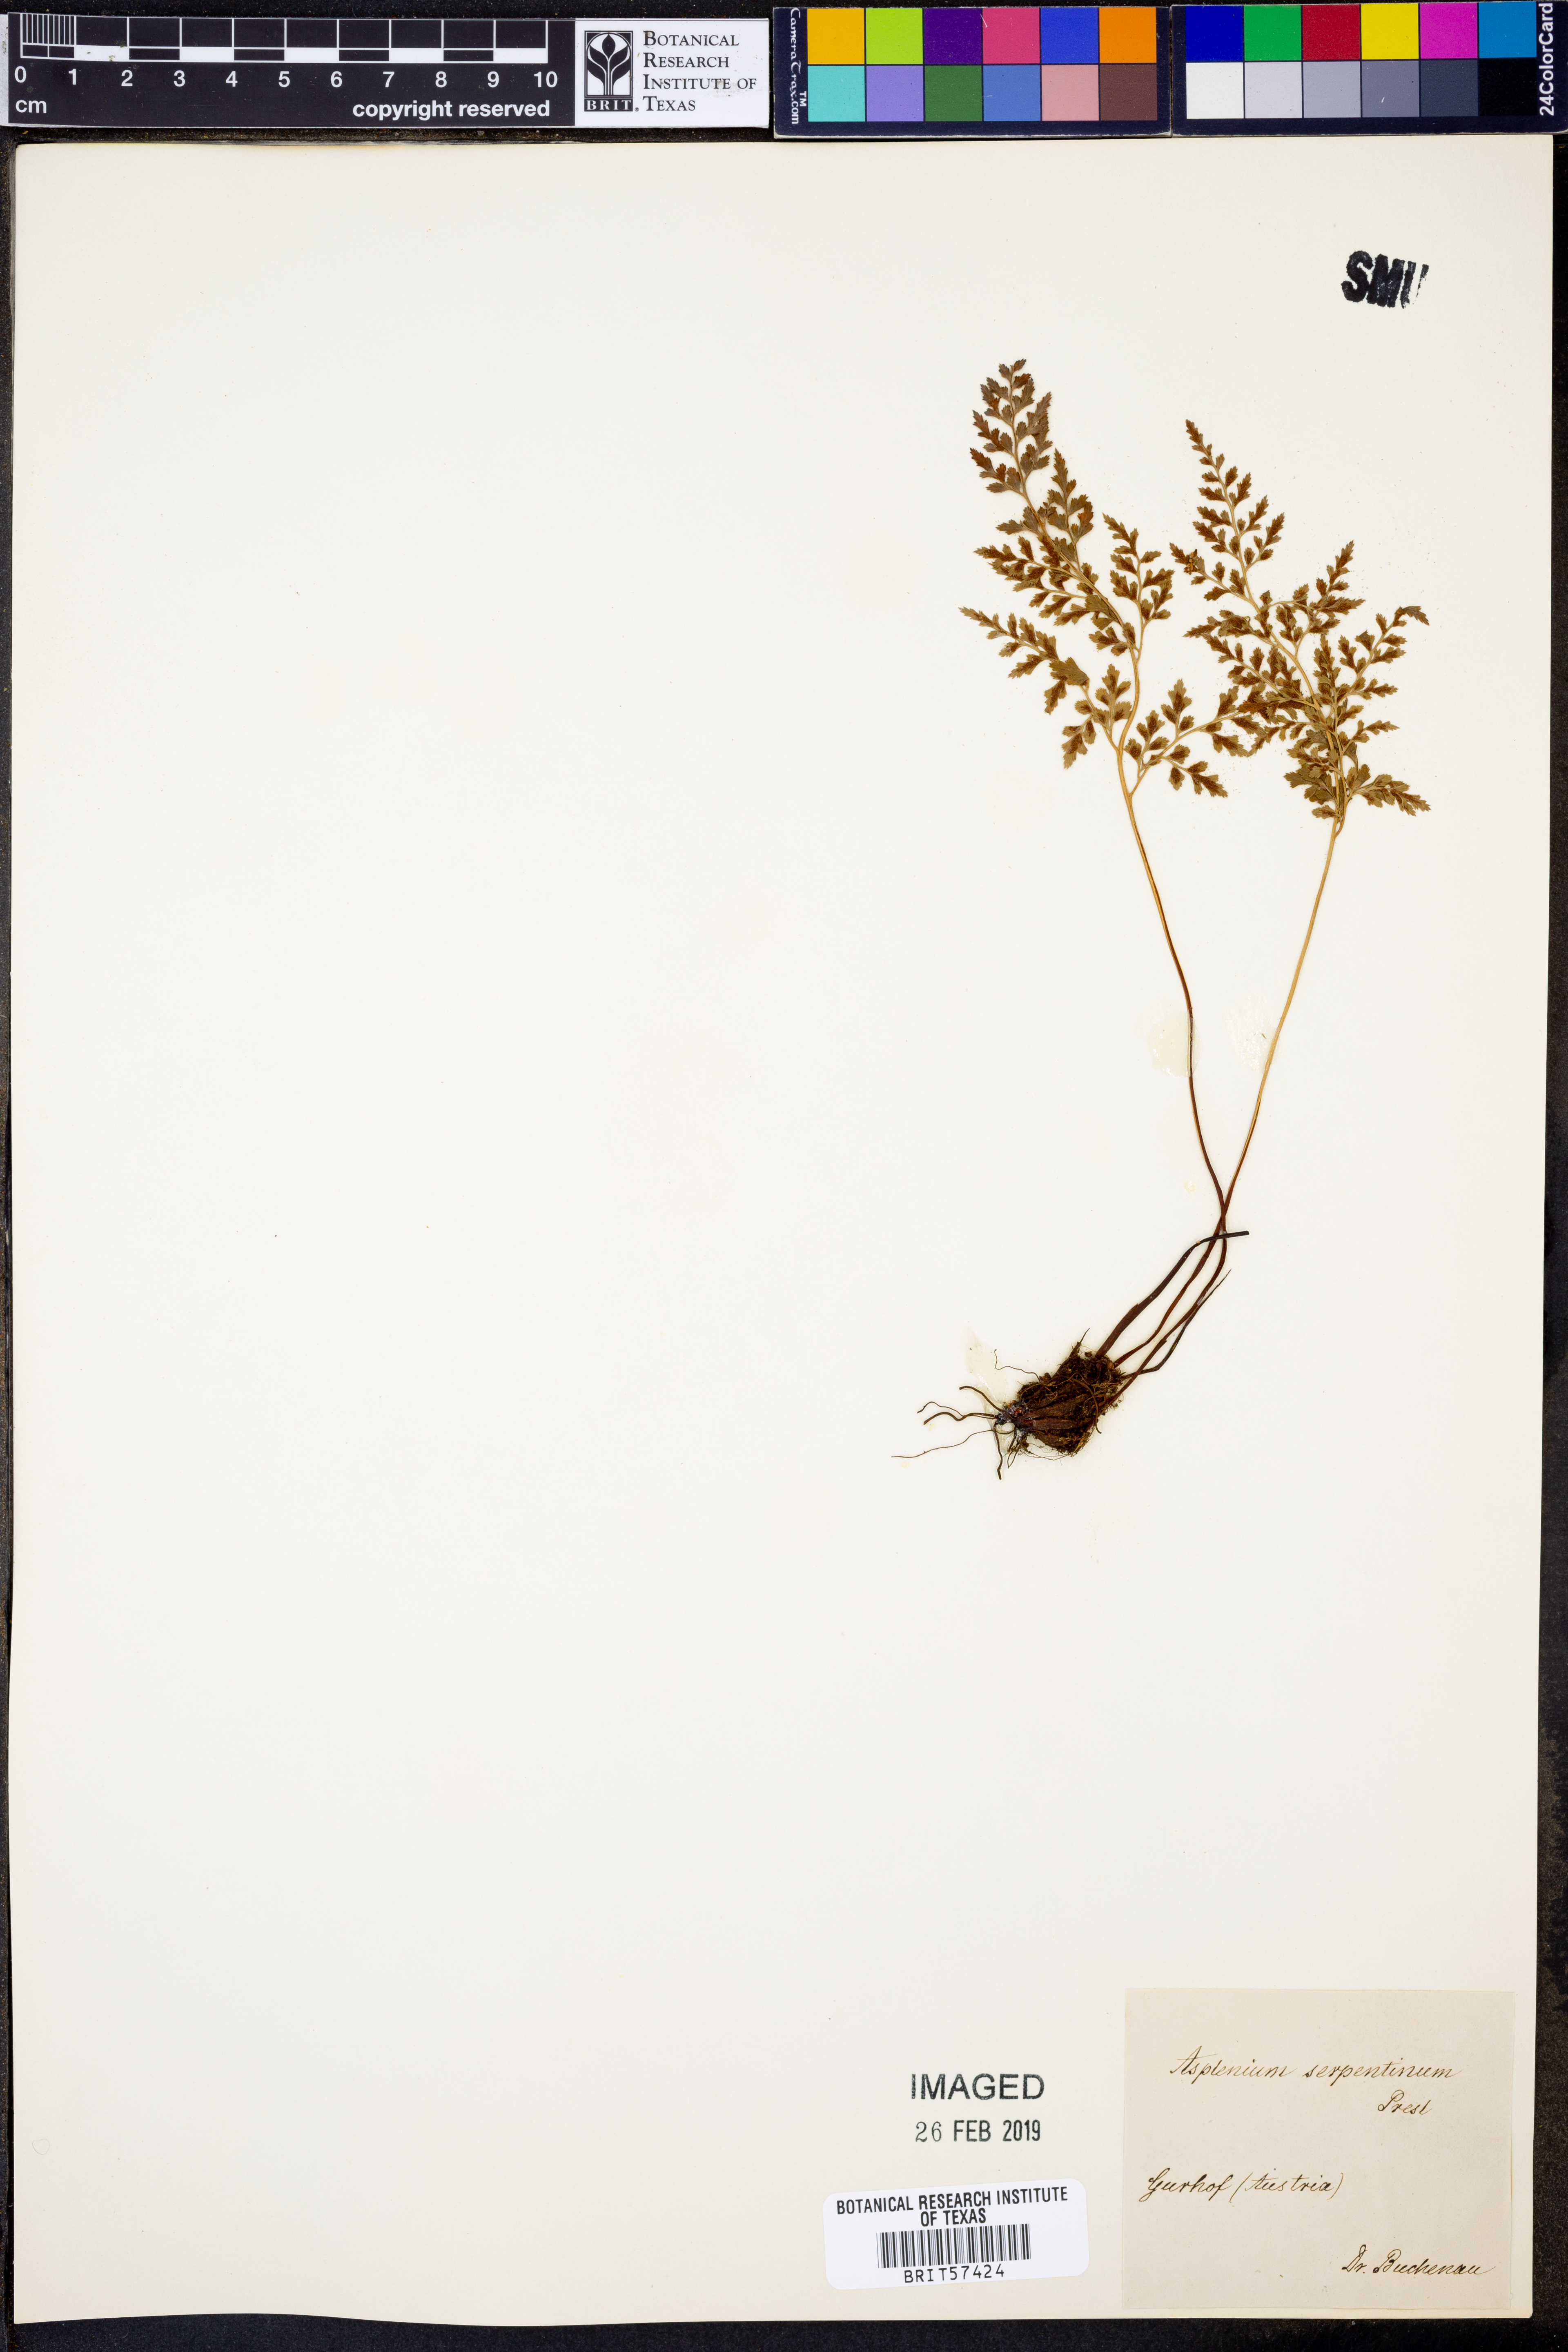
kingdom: Plantae
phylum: Tracheophyta
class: Polypodiopsida
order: Polypodiales
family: Aspleniaceae
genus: Asplenium
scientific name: Asplenium cuneifolium
